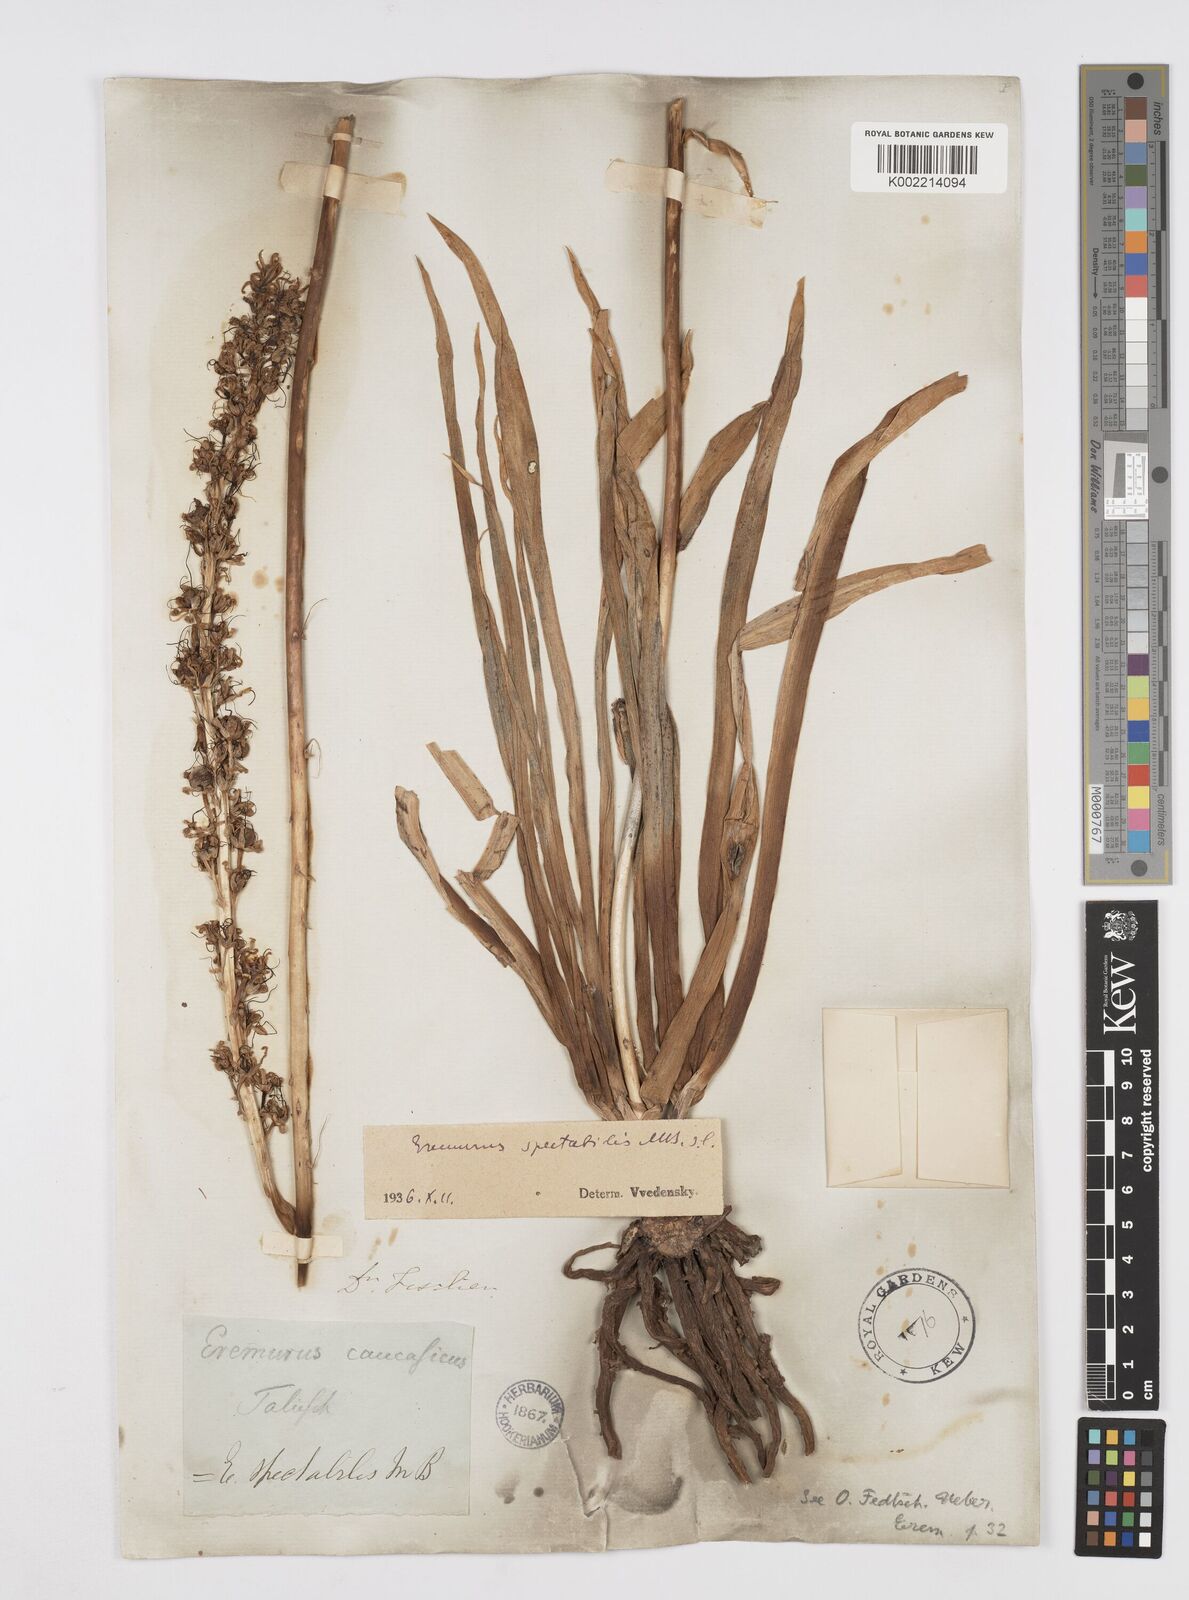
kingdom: Plantae
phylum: Tracheophyta
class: Liliopsida
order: Asparagales
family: Asphodelaceae
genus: Eremurus
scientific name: Eremurus spectabilis
